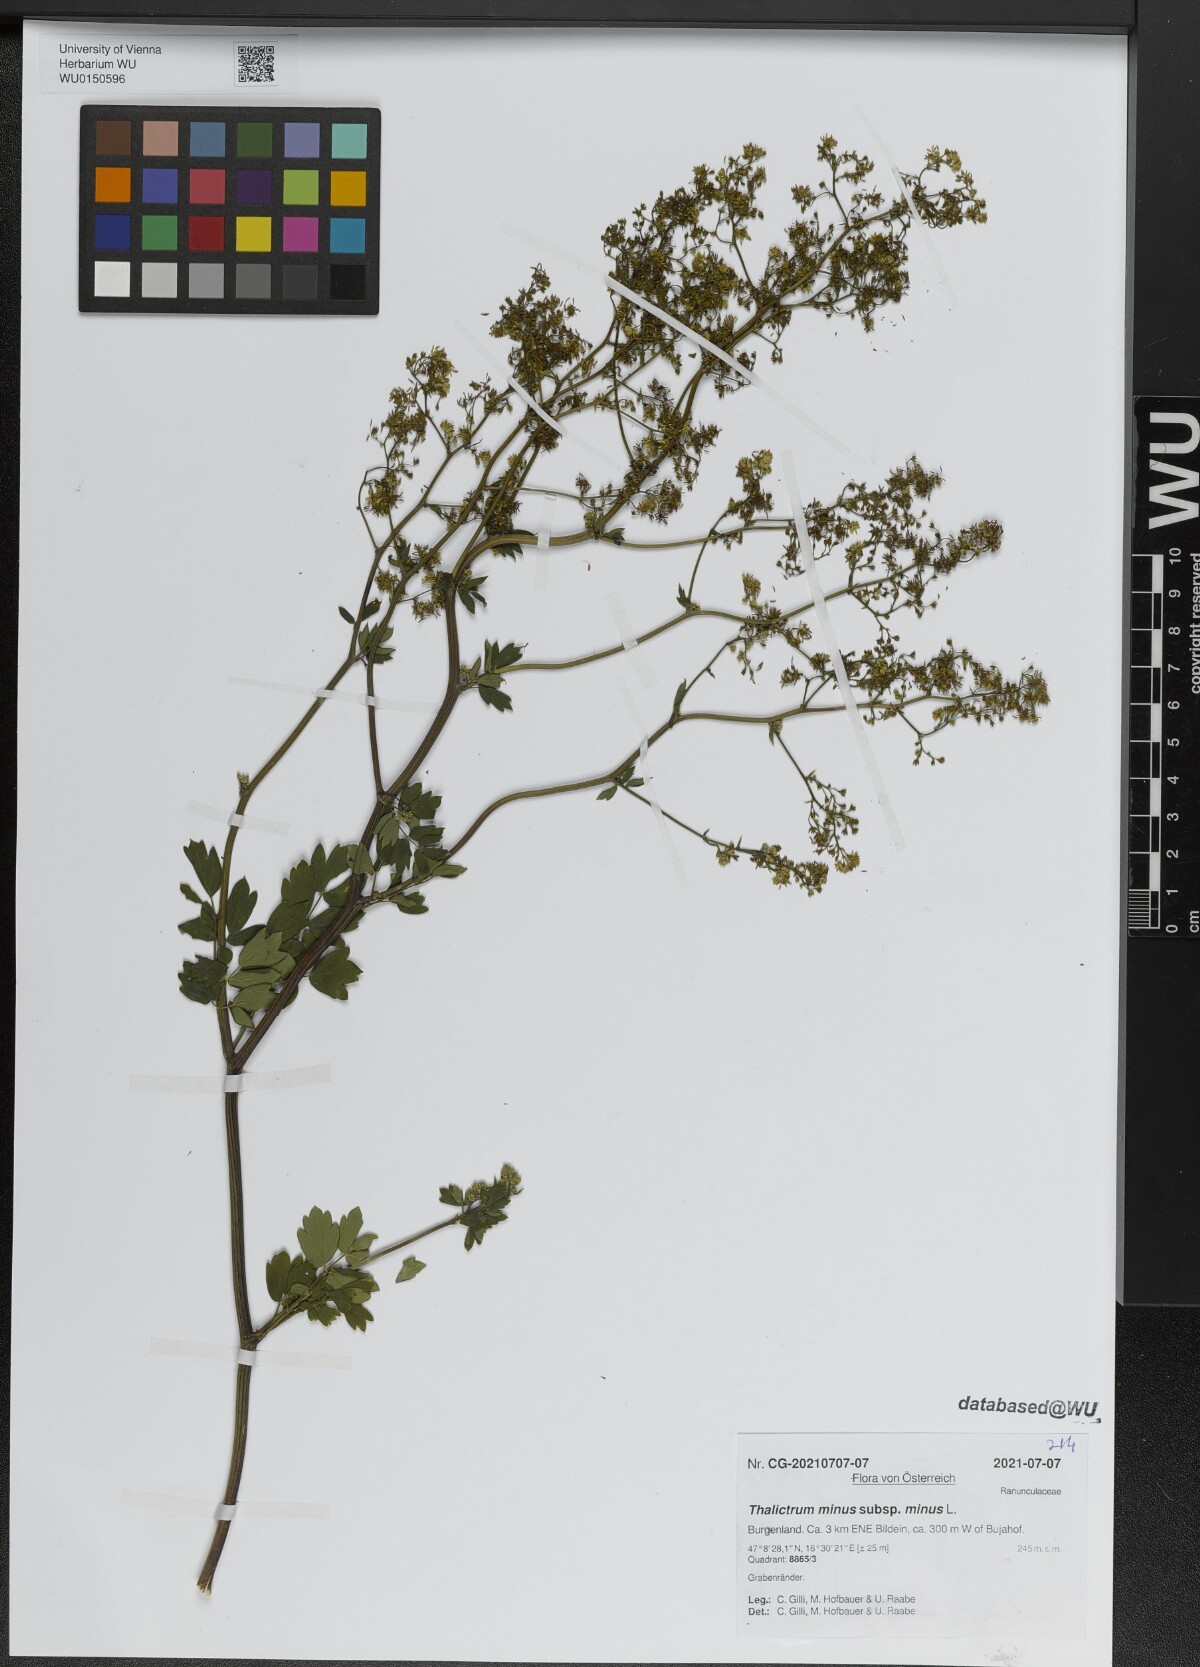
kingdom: Plantae
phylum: Tracheophyta
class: Magnoliopsida
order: Ranunculales
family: Ranunculaceae
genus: Thalictrum
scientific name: Thalictrum minus
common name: Lesser meadow-rue
